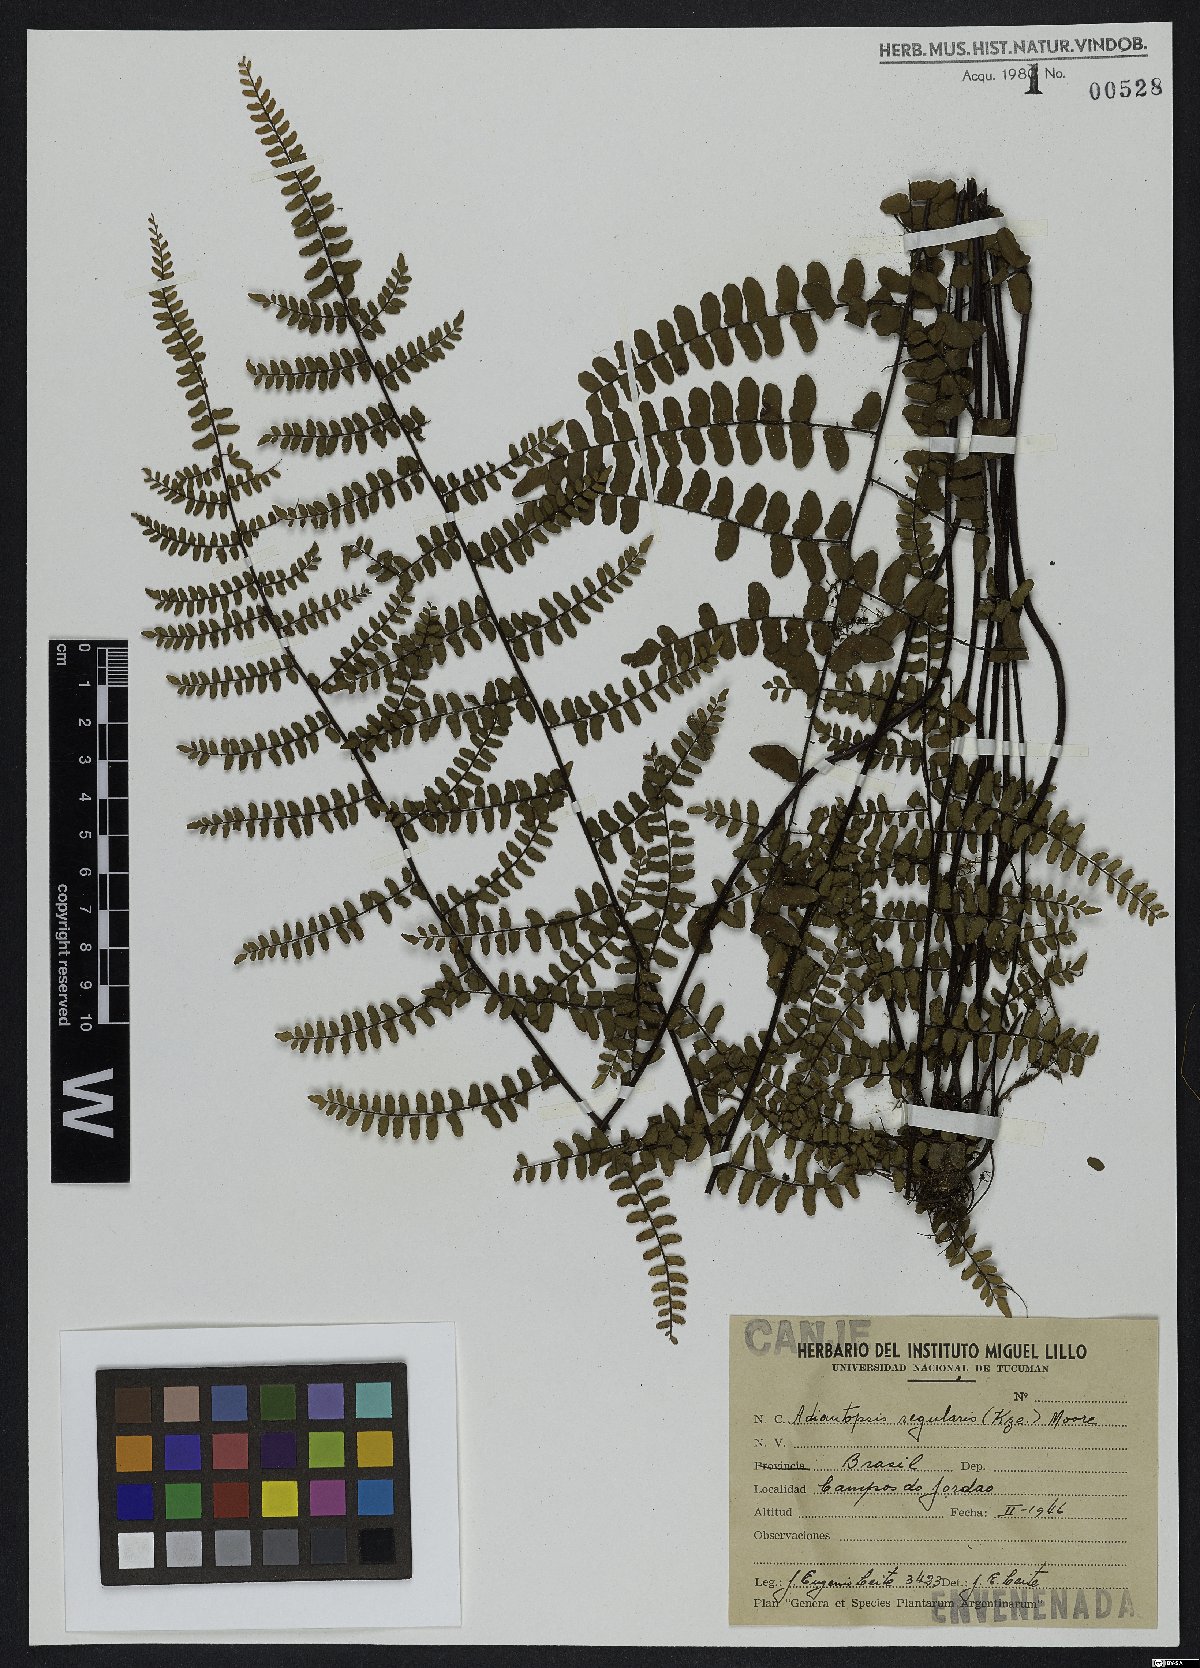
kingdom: Plantae
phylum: Tracheophyta
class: Polypodiopsida
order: Polypodiales
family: Pteridaceae
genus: Adiantopsis
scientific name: Adiantopsis regularis
